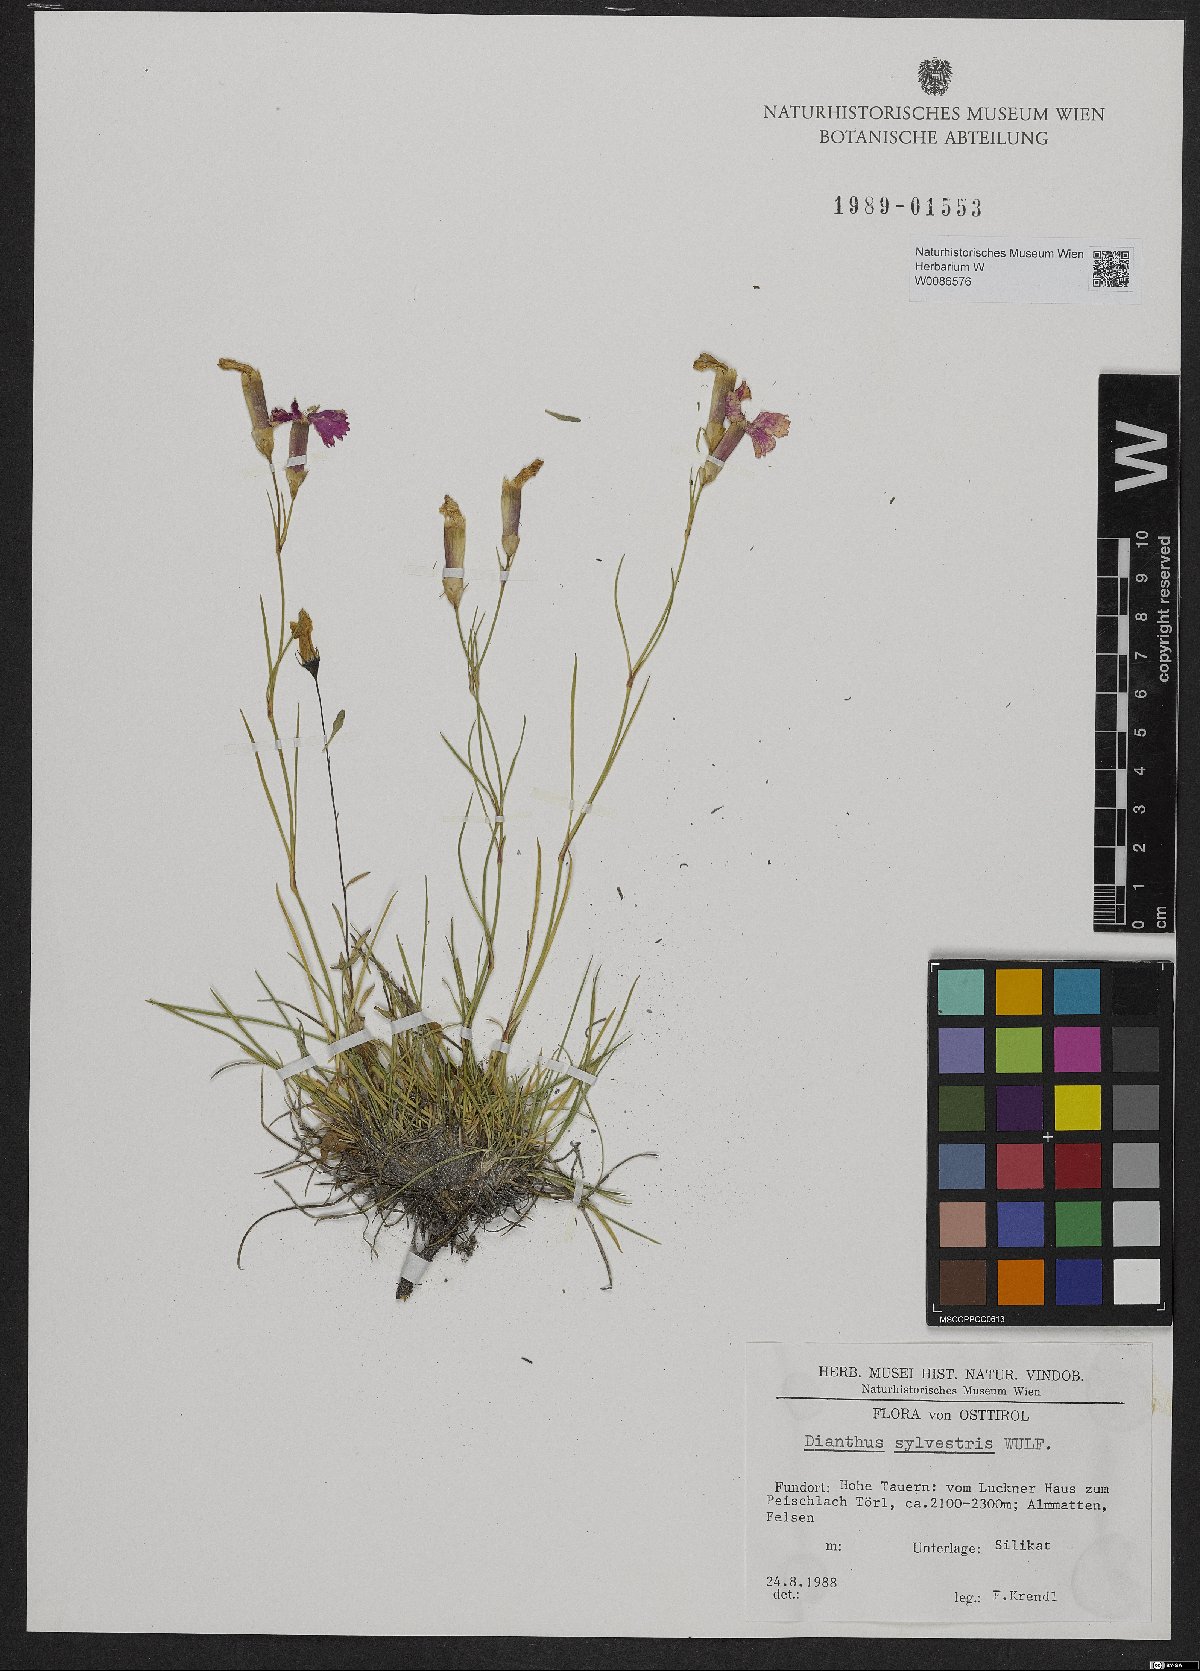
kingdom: Plantae
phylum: Tracheophyta
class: Magnoliopsida
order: Caryophyllales
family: Caryophyllaceae
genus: Dianthus
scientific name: Dianthus sylvestris
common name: Wood pink
